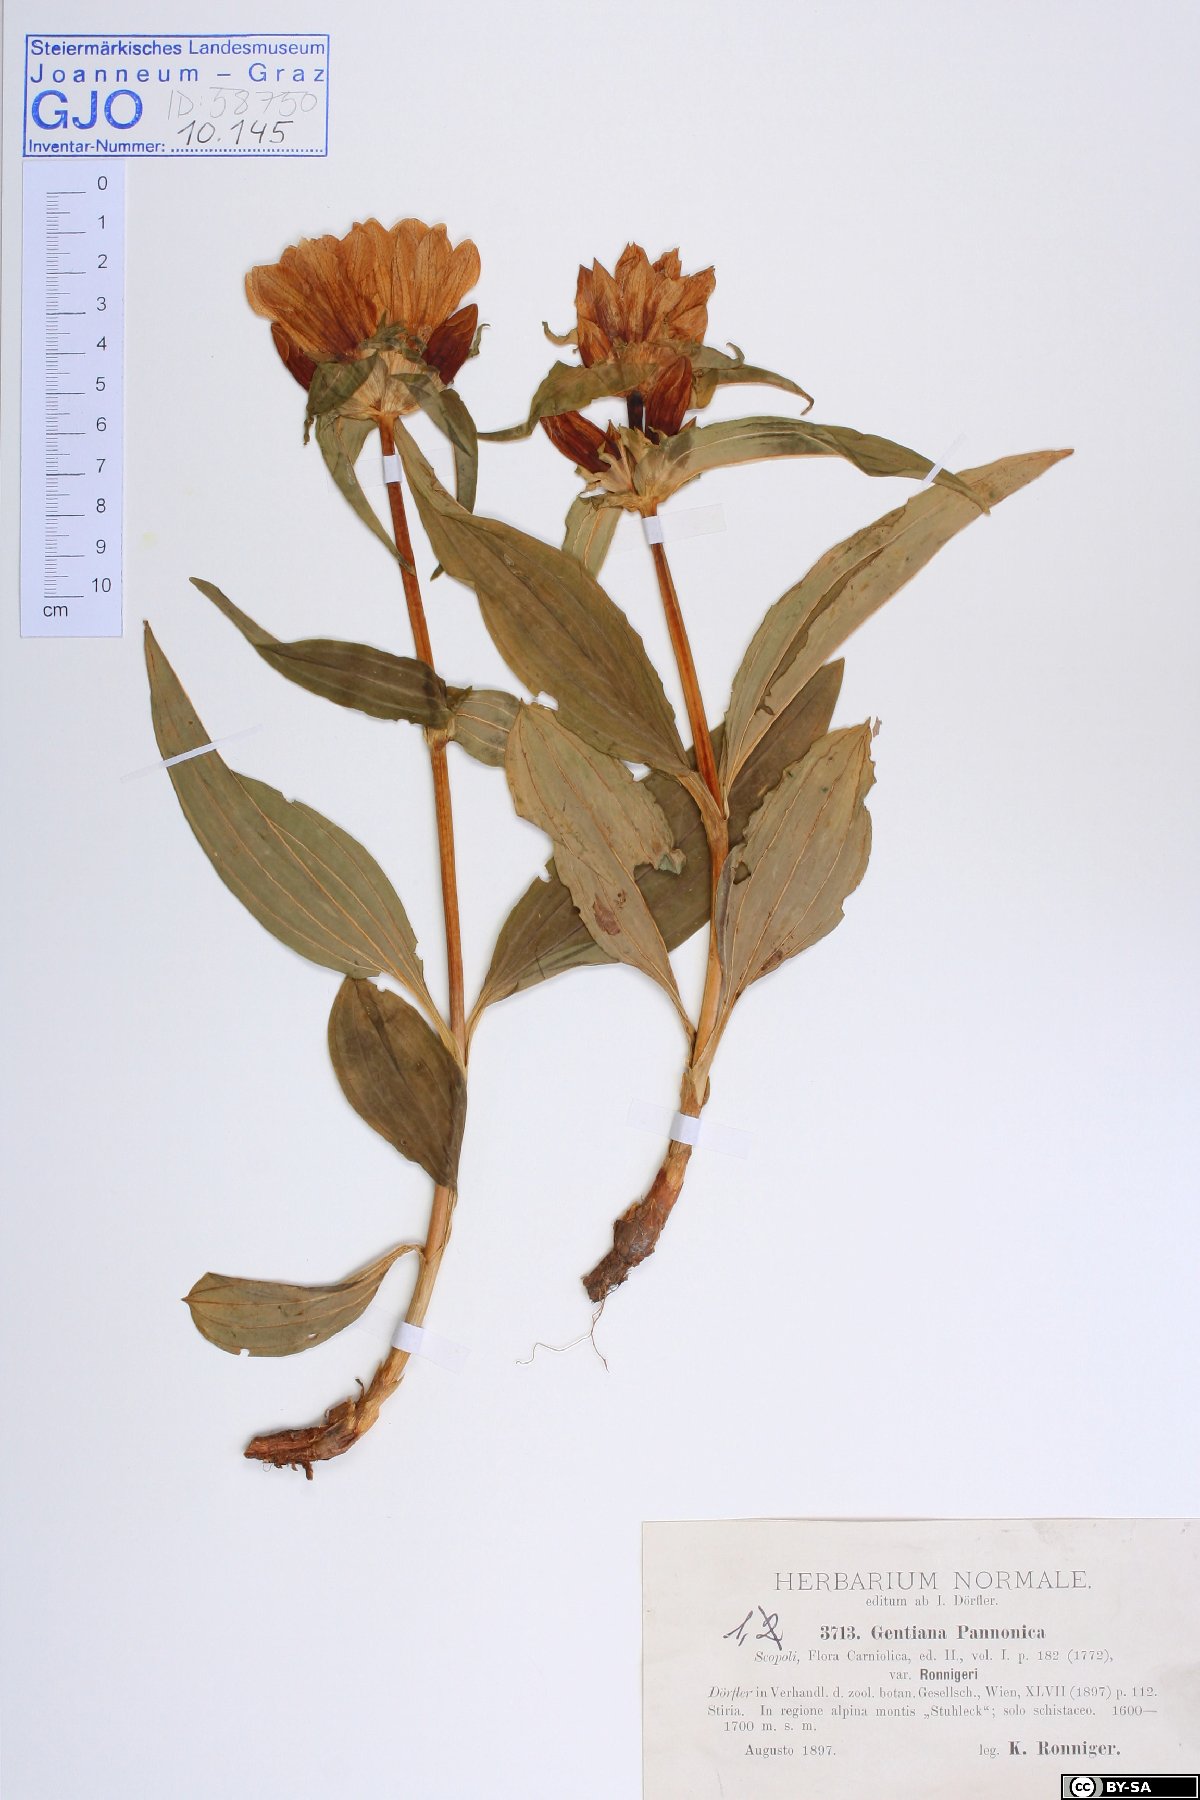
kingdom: Plantae
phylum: Tracheophyta
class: Magnoliopsida
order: Gentianales
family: Gentianaceae
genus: Gentiana
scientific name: Gentiana pannonica
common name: Hungarian gentian
